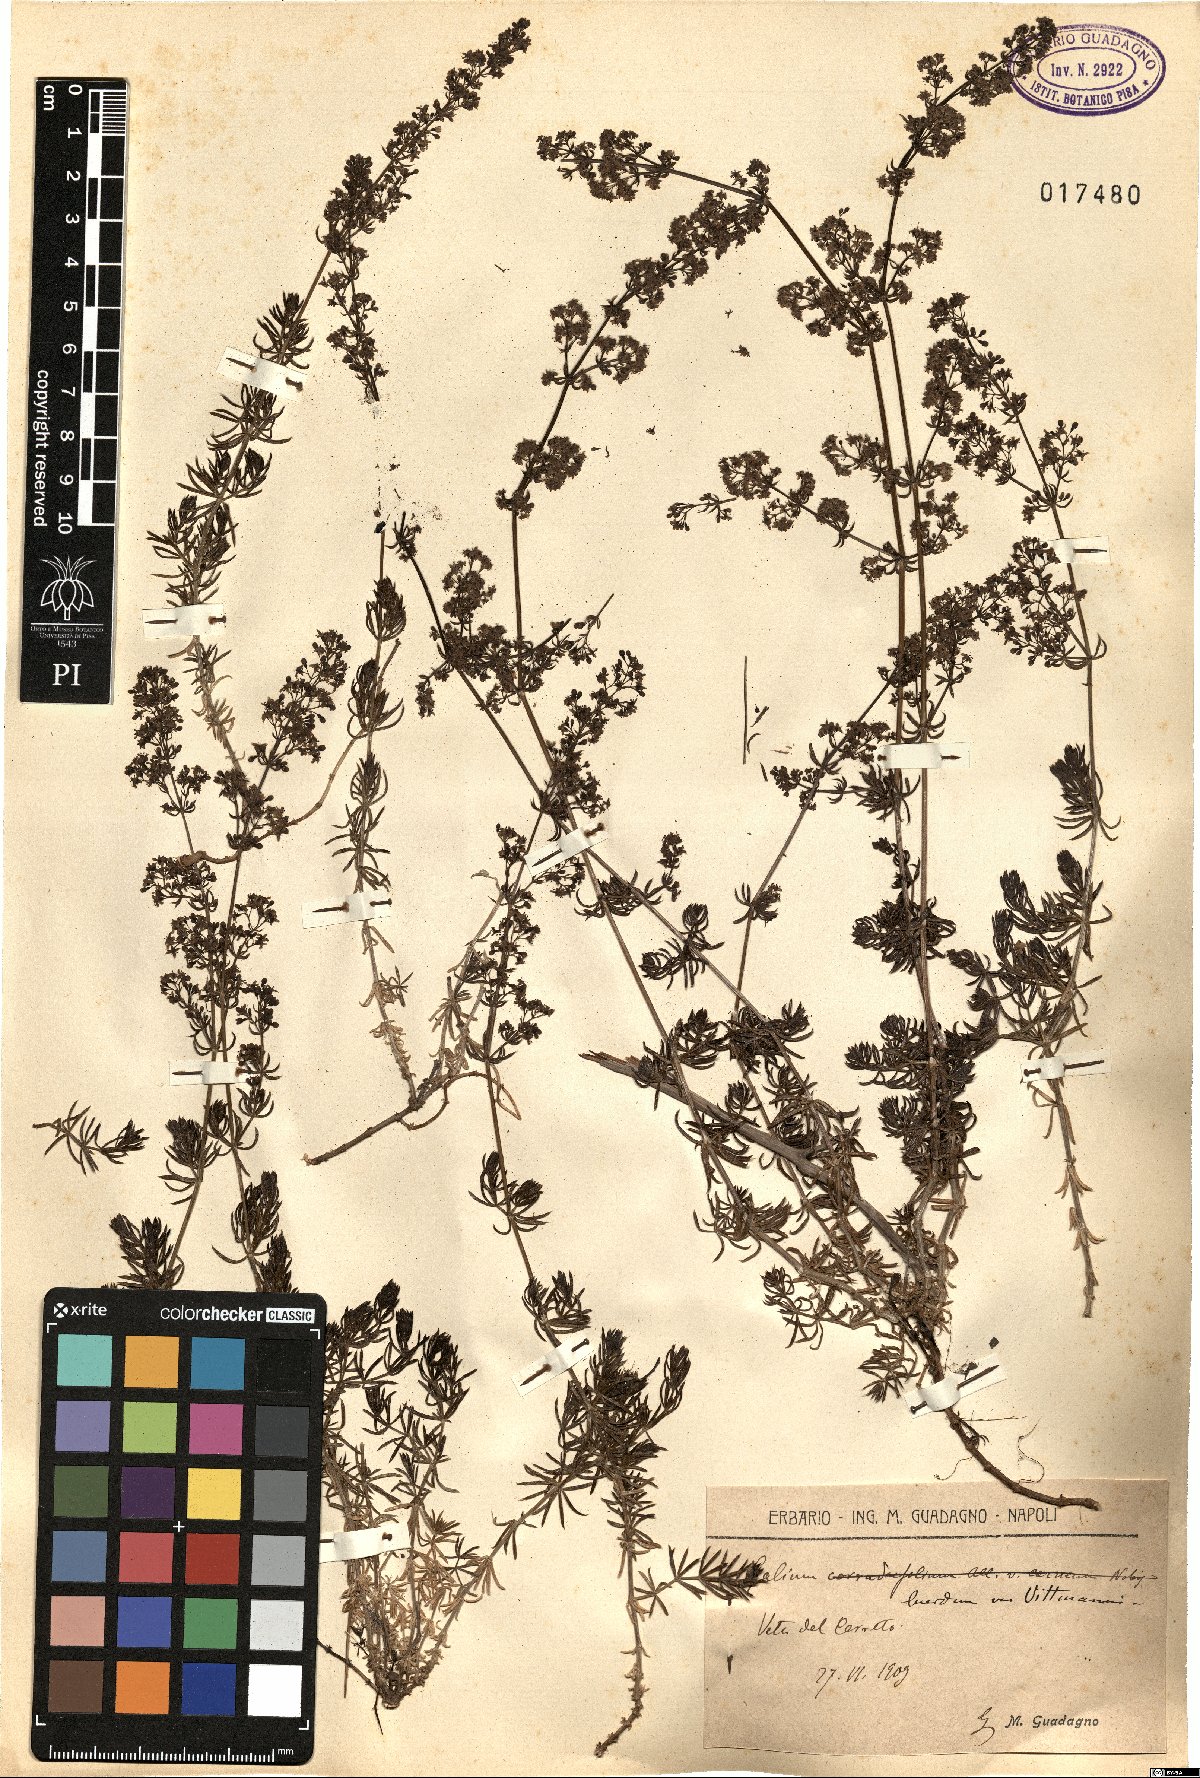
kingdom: Plantae
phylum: Tracheophyta
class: Magnoliopsida
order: Gentianales
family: Rubiaceae
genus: Galium
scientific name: Galium lucidum
